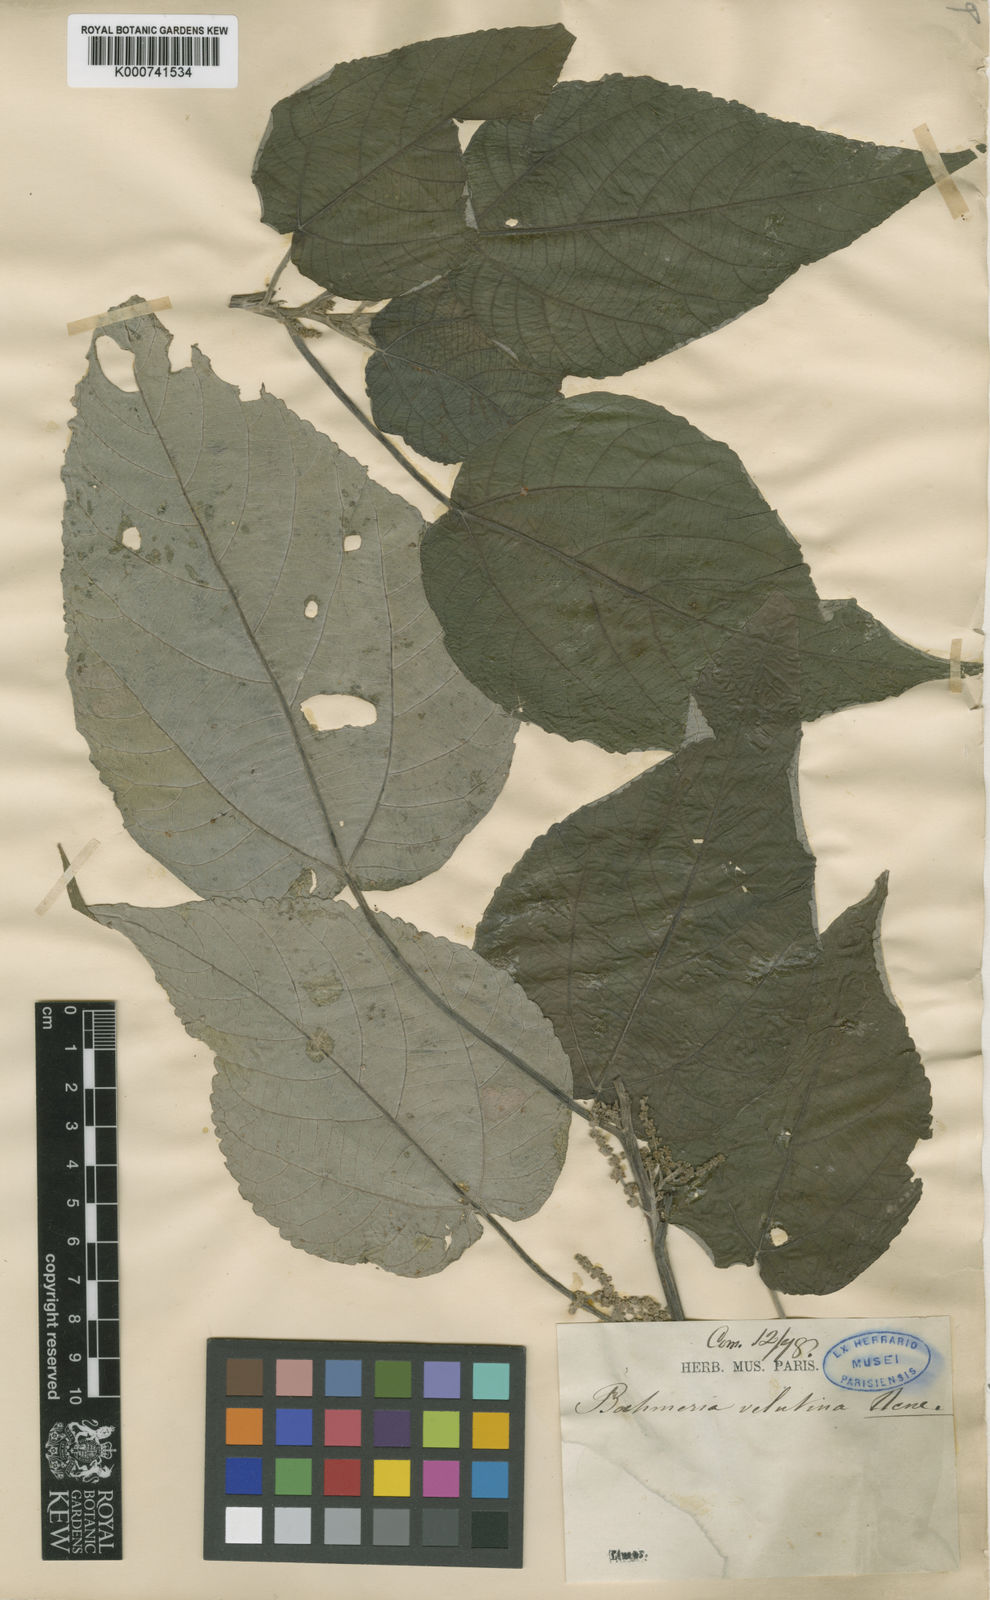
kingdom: Plantae
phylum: Tracheophyta
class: Magnoliopsida
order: Rosales
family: Urticaceae
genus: Pipturus
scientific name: Pipturus argenteus
